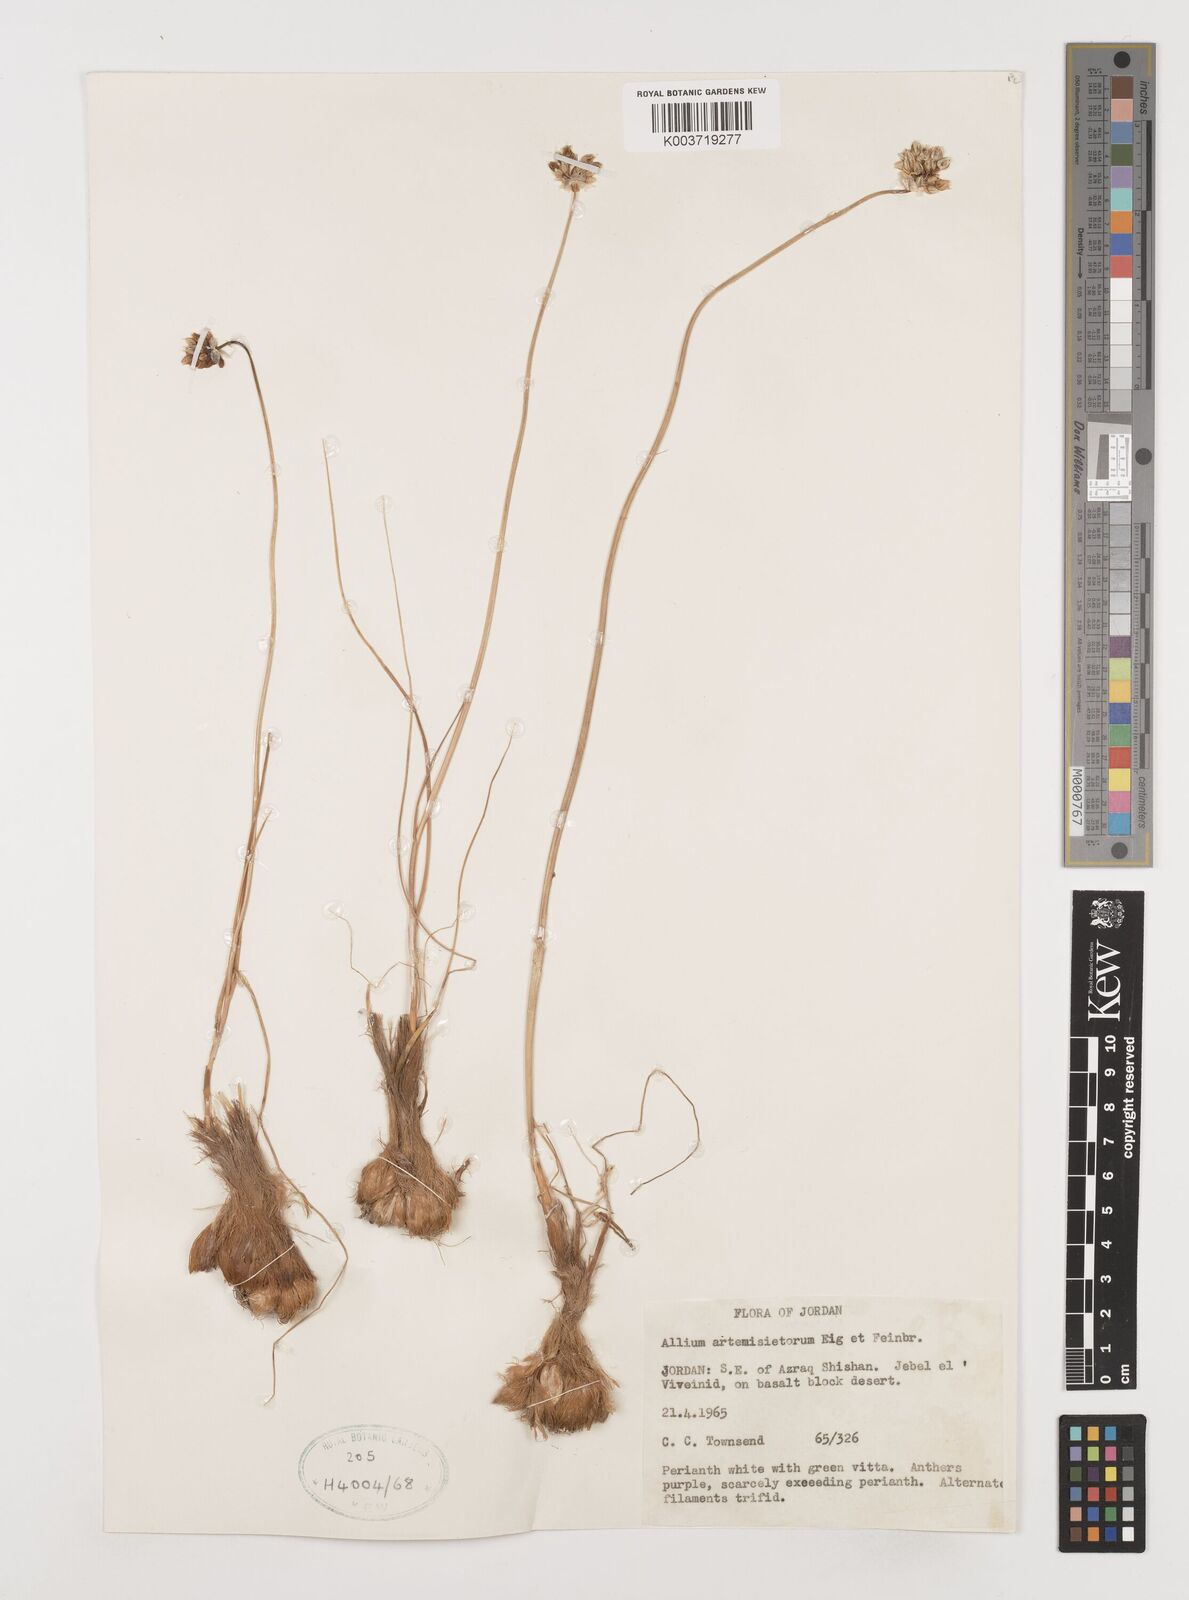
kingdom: Plantae
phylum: Tracheophyta
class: Liliopsida
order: Asparagales
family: Amaryllidaceae
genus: Allium
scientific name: Allium artemisietorum
